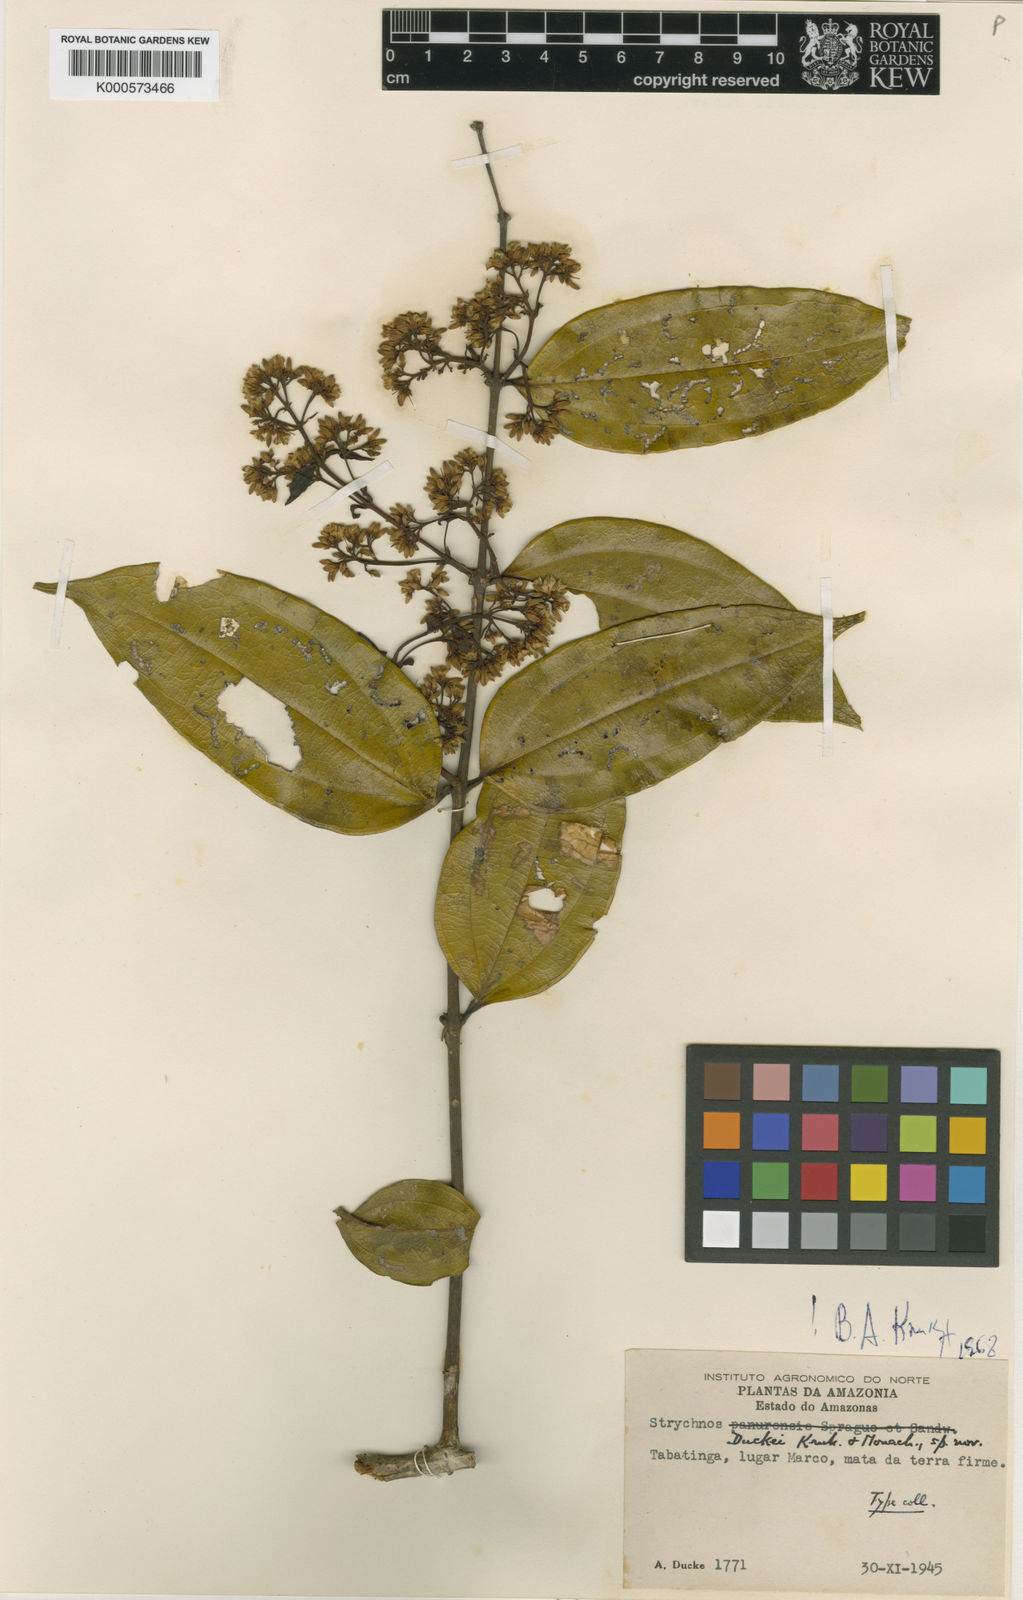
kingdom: Plantae
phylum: Tracheophyta
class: Magnoliopsida
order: Gentianales
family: Loganiaceae
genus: Strychnos
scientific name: Strychnos duckei
